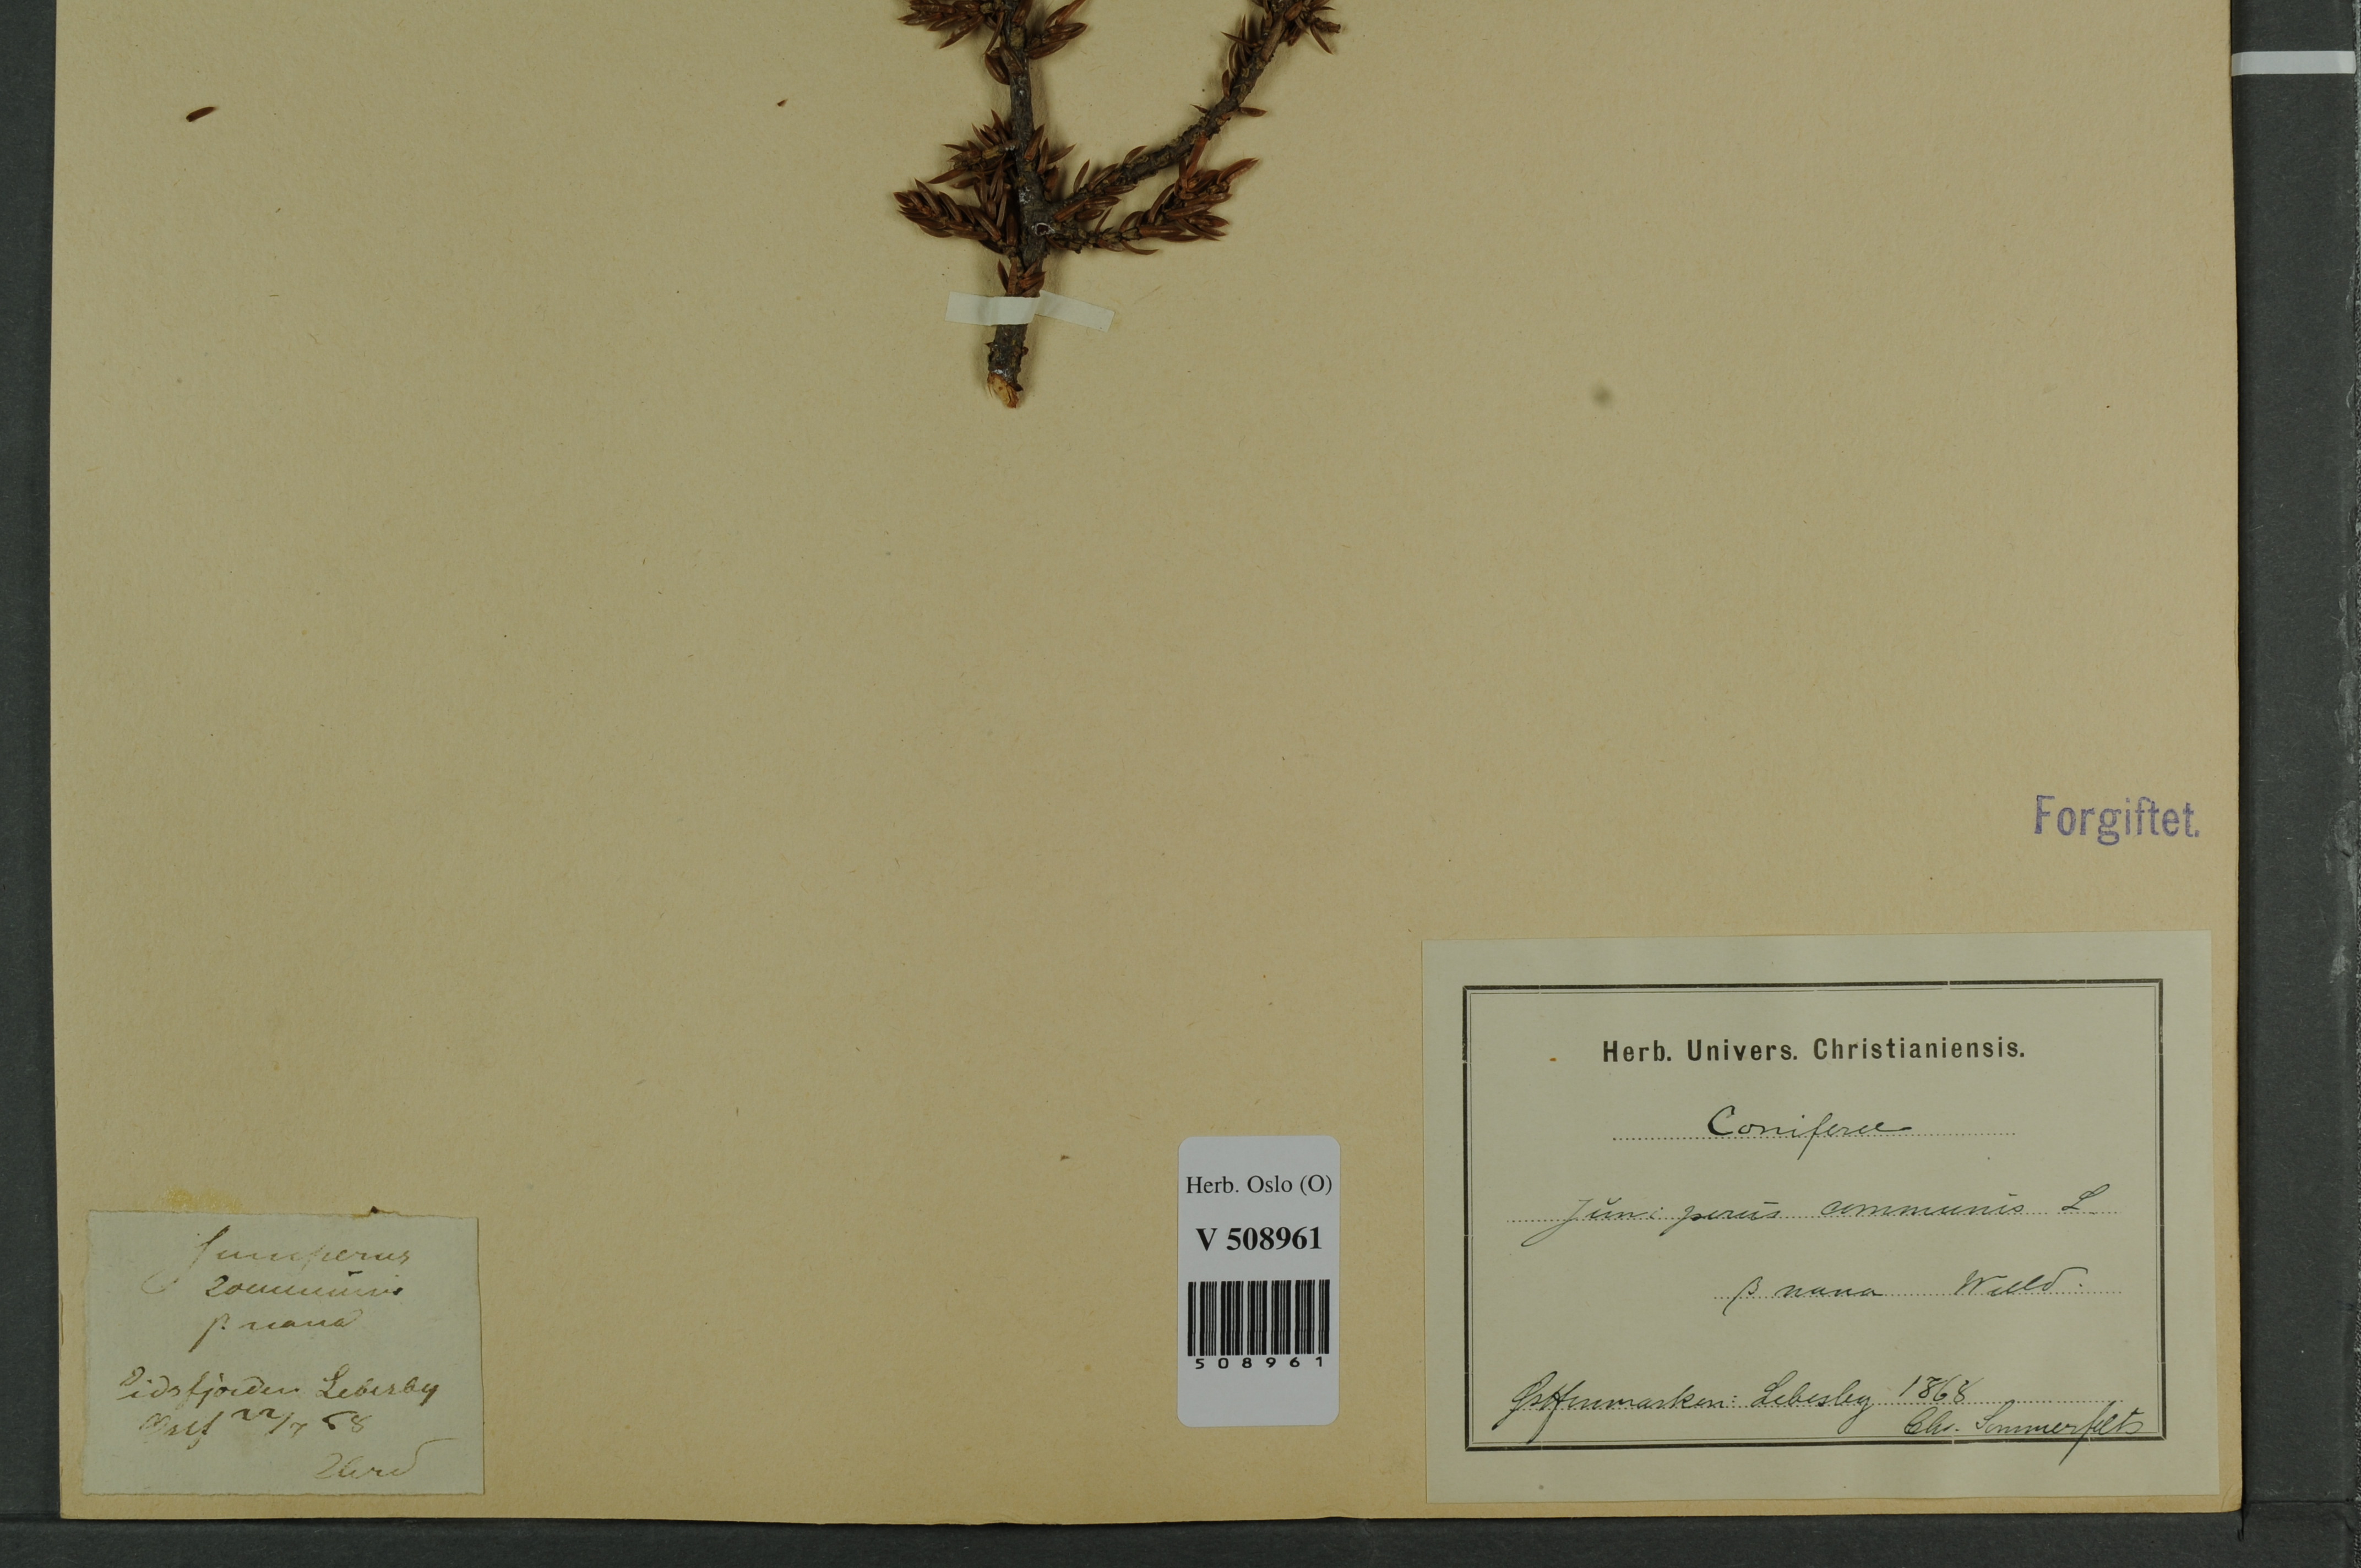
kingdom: Plantae
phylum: Tracheophyta
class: Pinopsida
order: Pinales
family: Cupressaceae
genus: Juniperus
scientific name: Juniperus communis
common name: Common juniper
